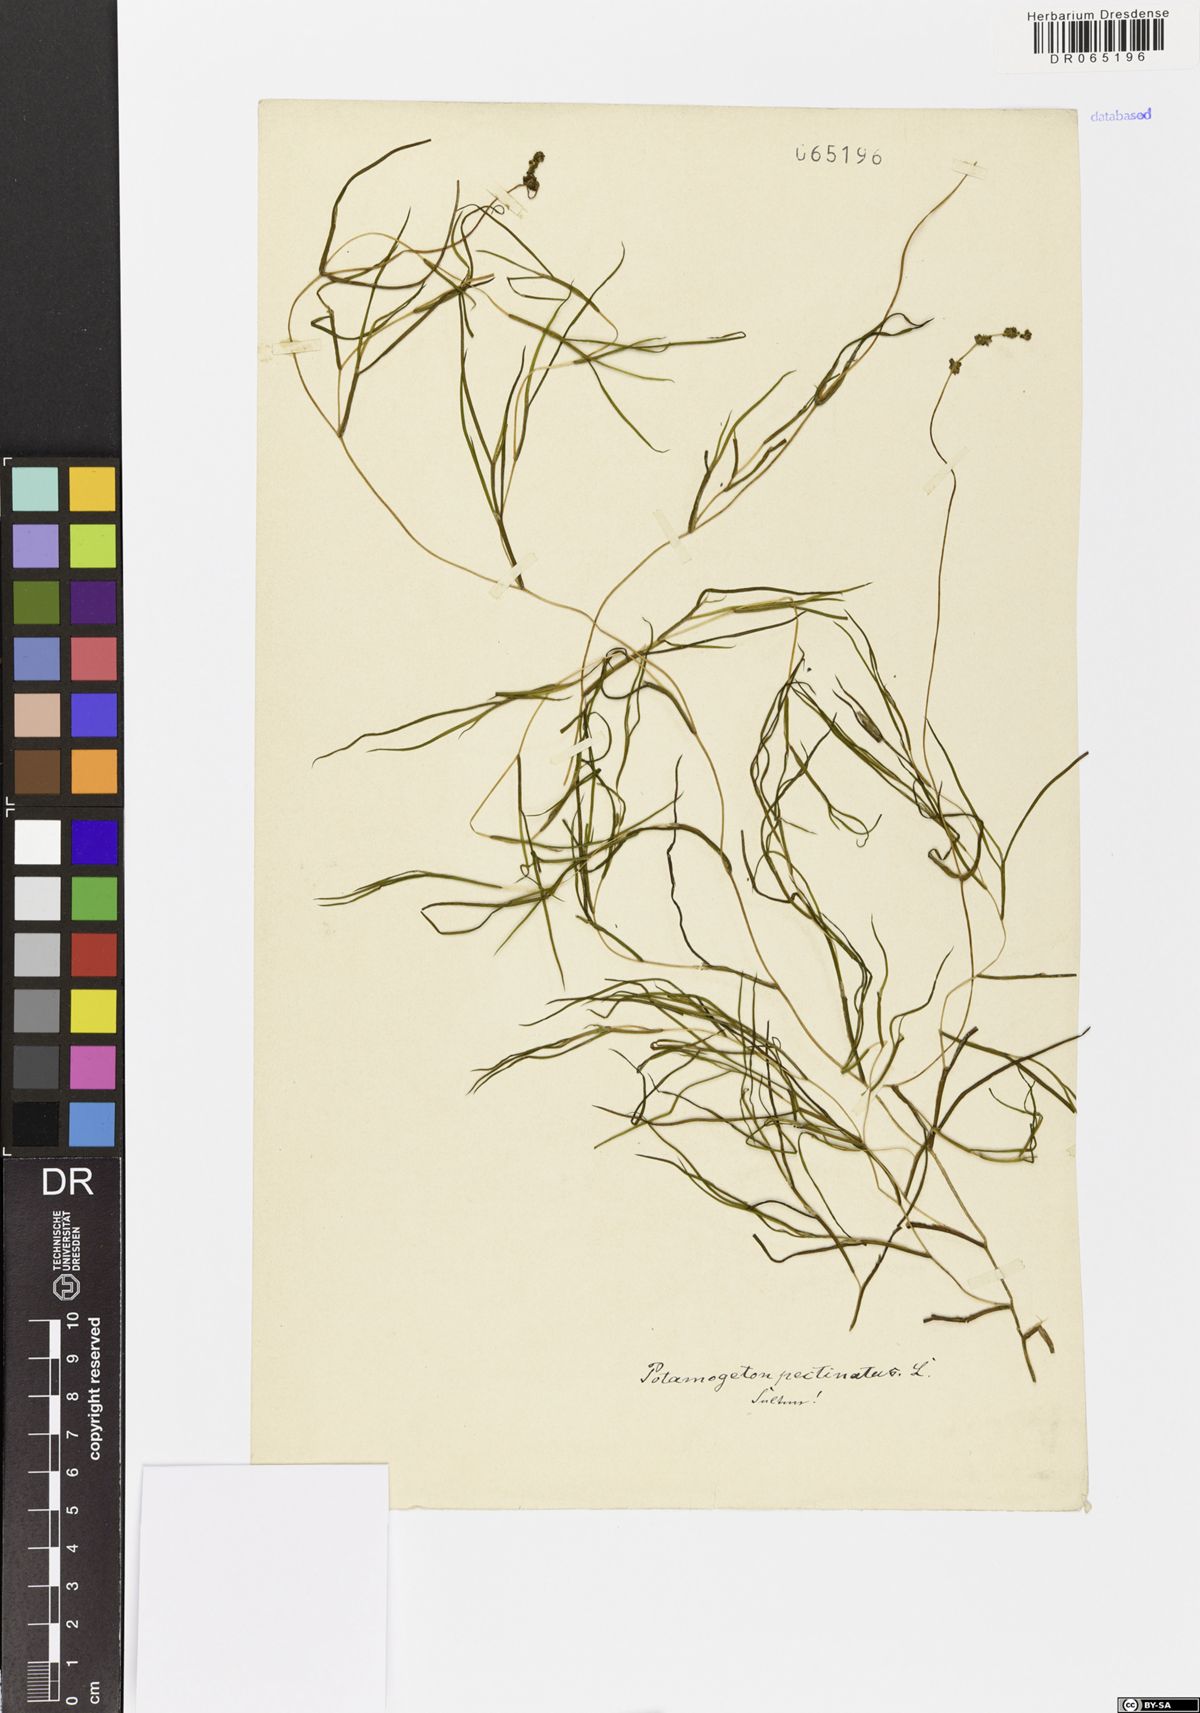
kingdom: Plantae
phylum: Tracheophyta
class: Liliopsida
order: Alismatales
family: Potamogetonaceae
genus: Stuckenia
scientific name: Stuckenia pectinata
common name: Sago pondweed
